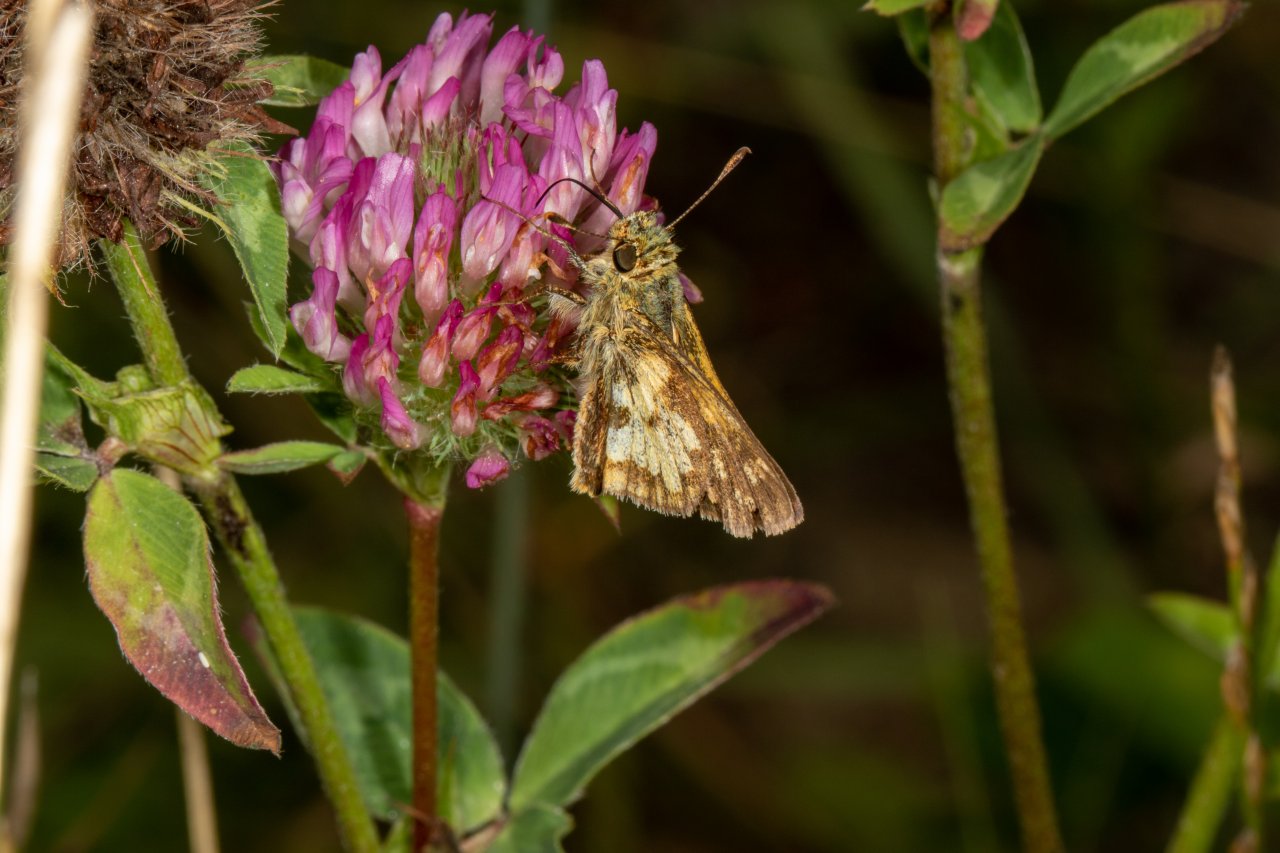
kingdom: Animalia
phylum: Arthropoda
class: Insecta
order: Lepidoptera
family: Hesperiidae
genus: Polites
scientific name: Polites coras
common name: Peck's Skipper
